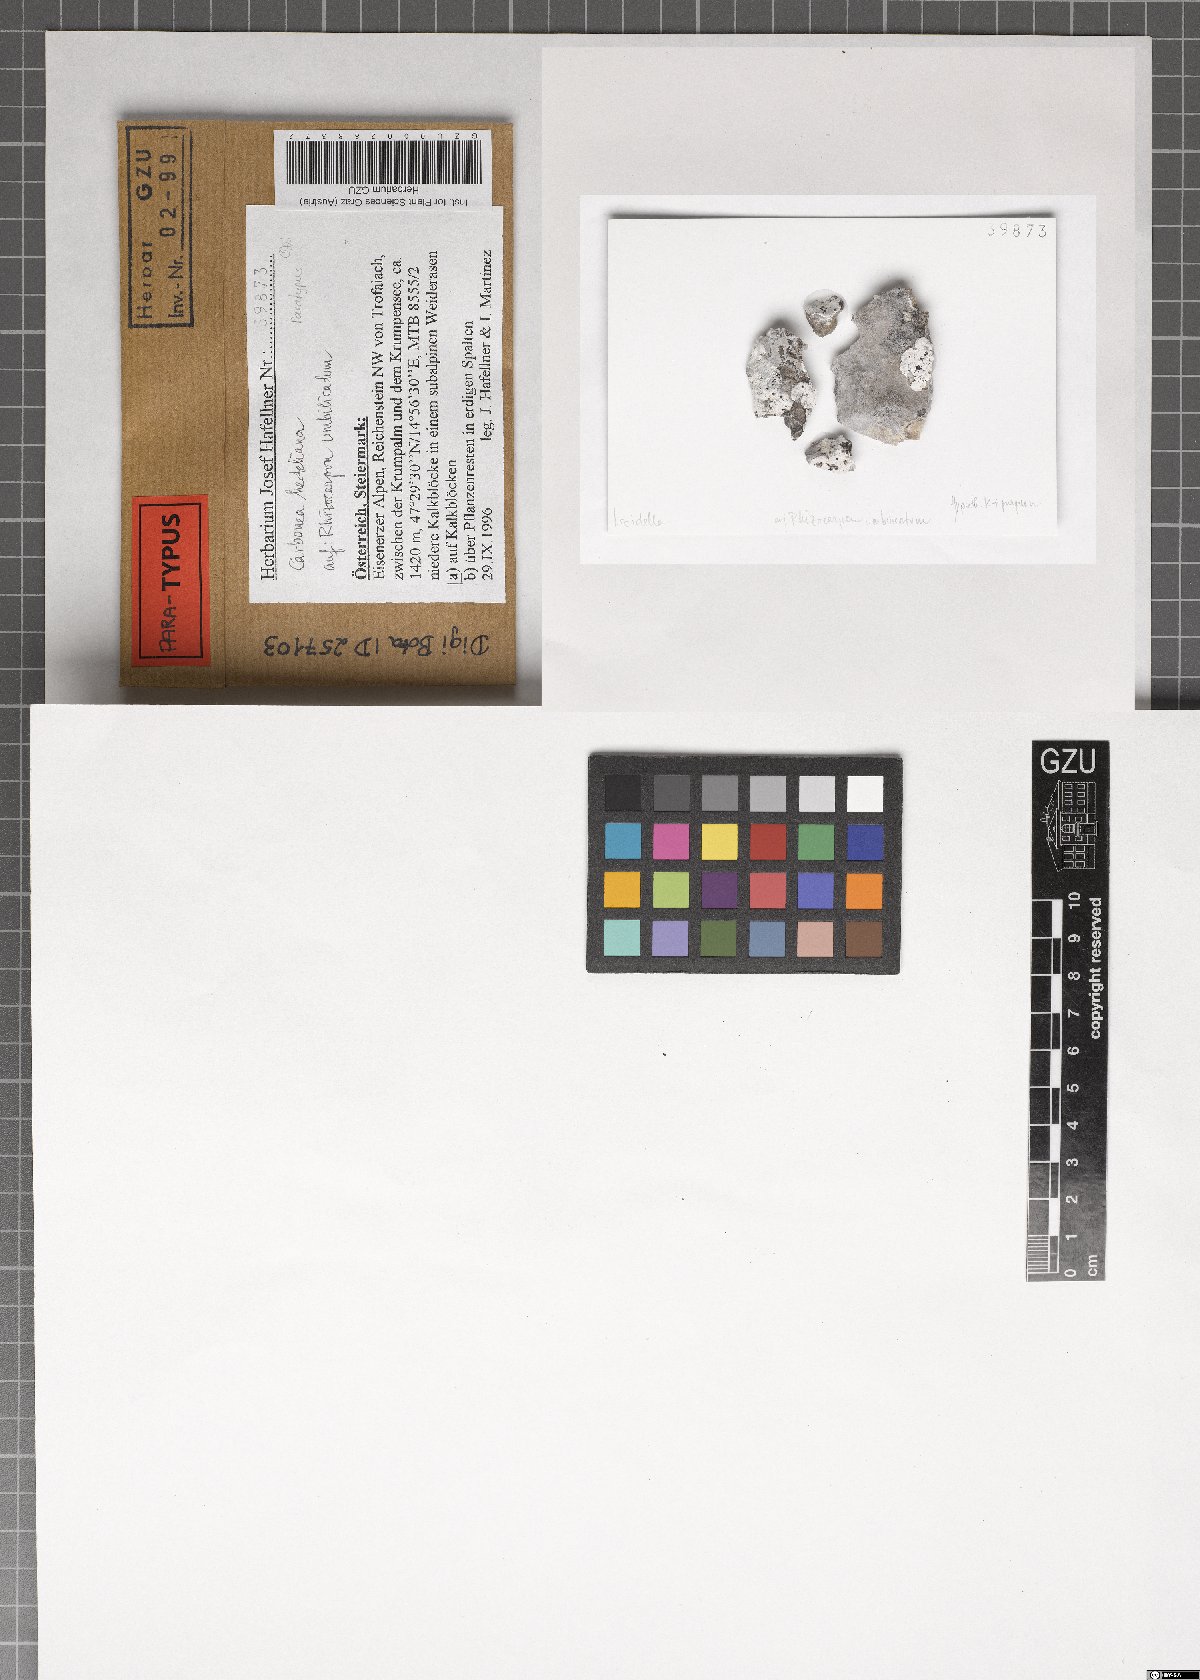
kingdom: Fungi
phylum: Ascomycota
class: Lecanoromycetes
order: Teloschistales
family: Teloschistaceae
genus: Huea
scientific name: Huea Carbonea herteliana
